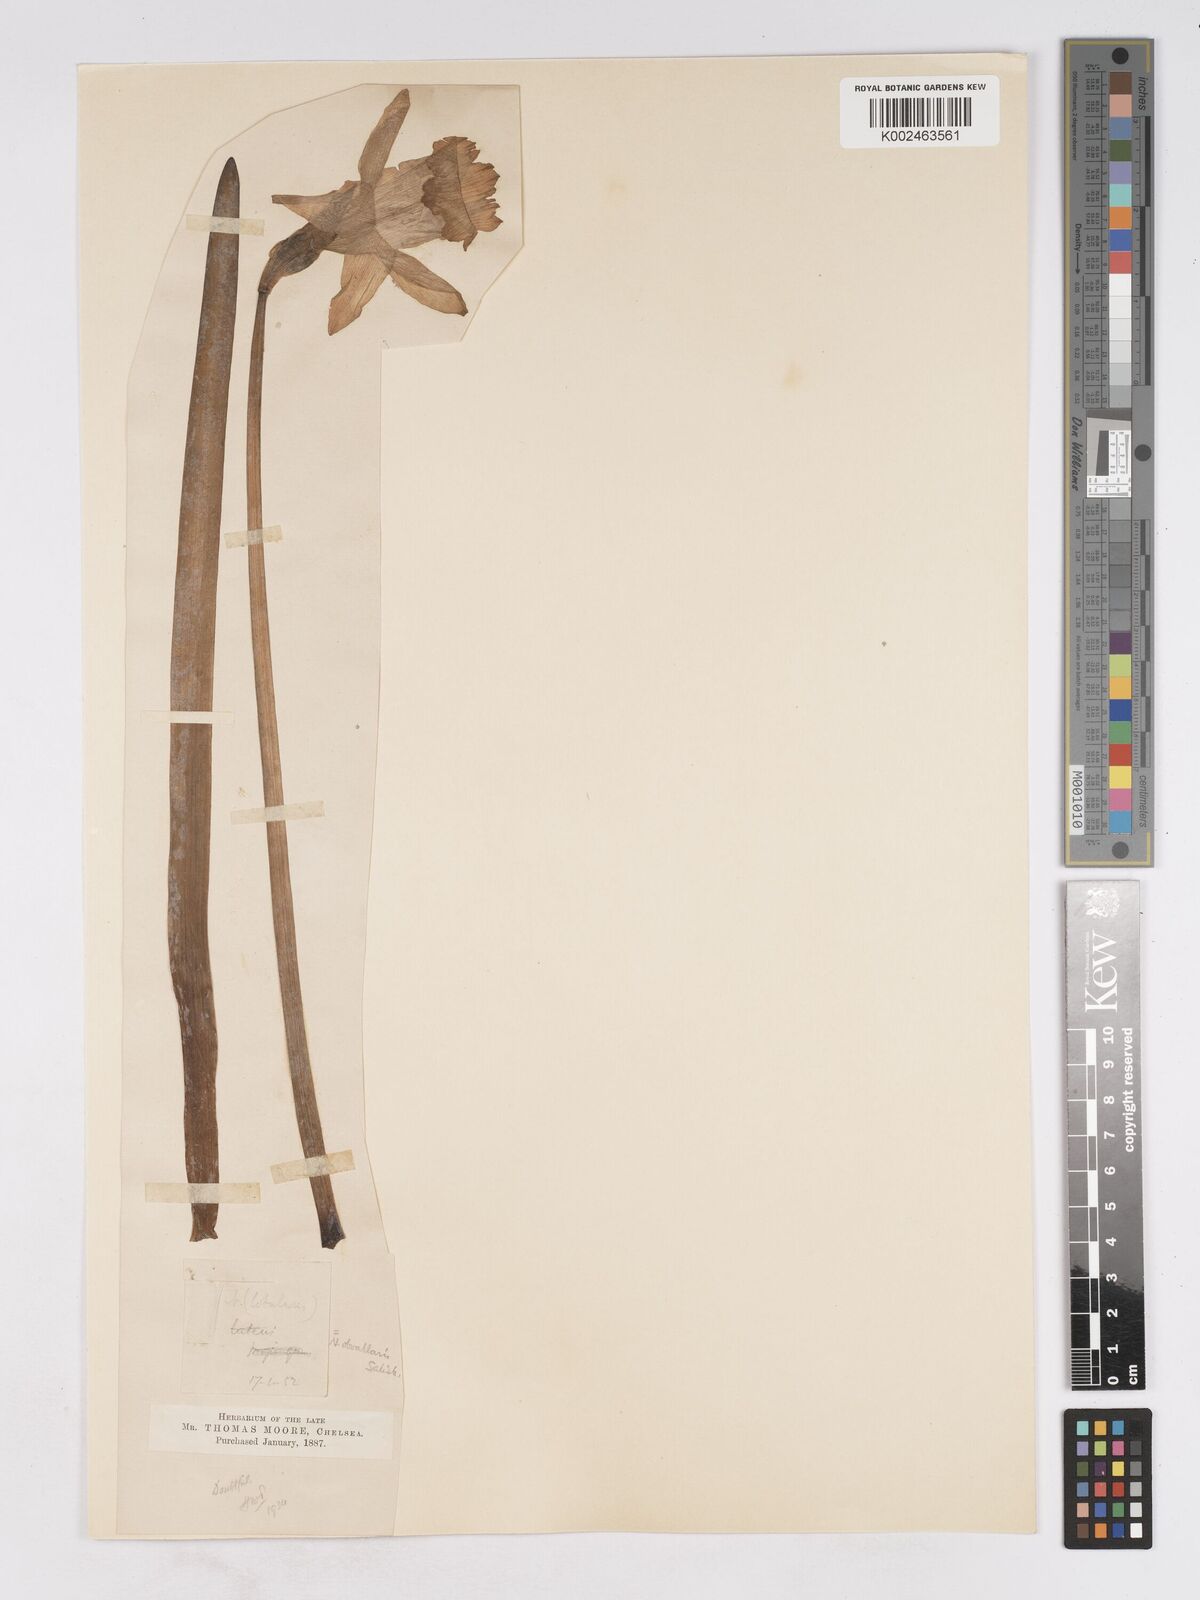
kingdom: Plantae
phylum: Tracheophyta
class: Liliopsida
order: Asparagales
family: Amaryllidaceae
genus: Narcissus
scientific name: Narcissus hispanicus
